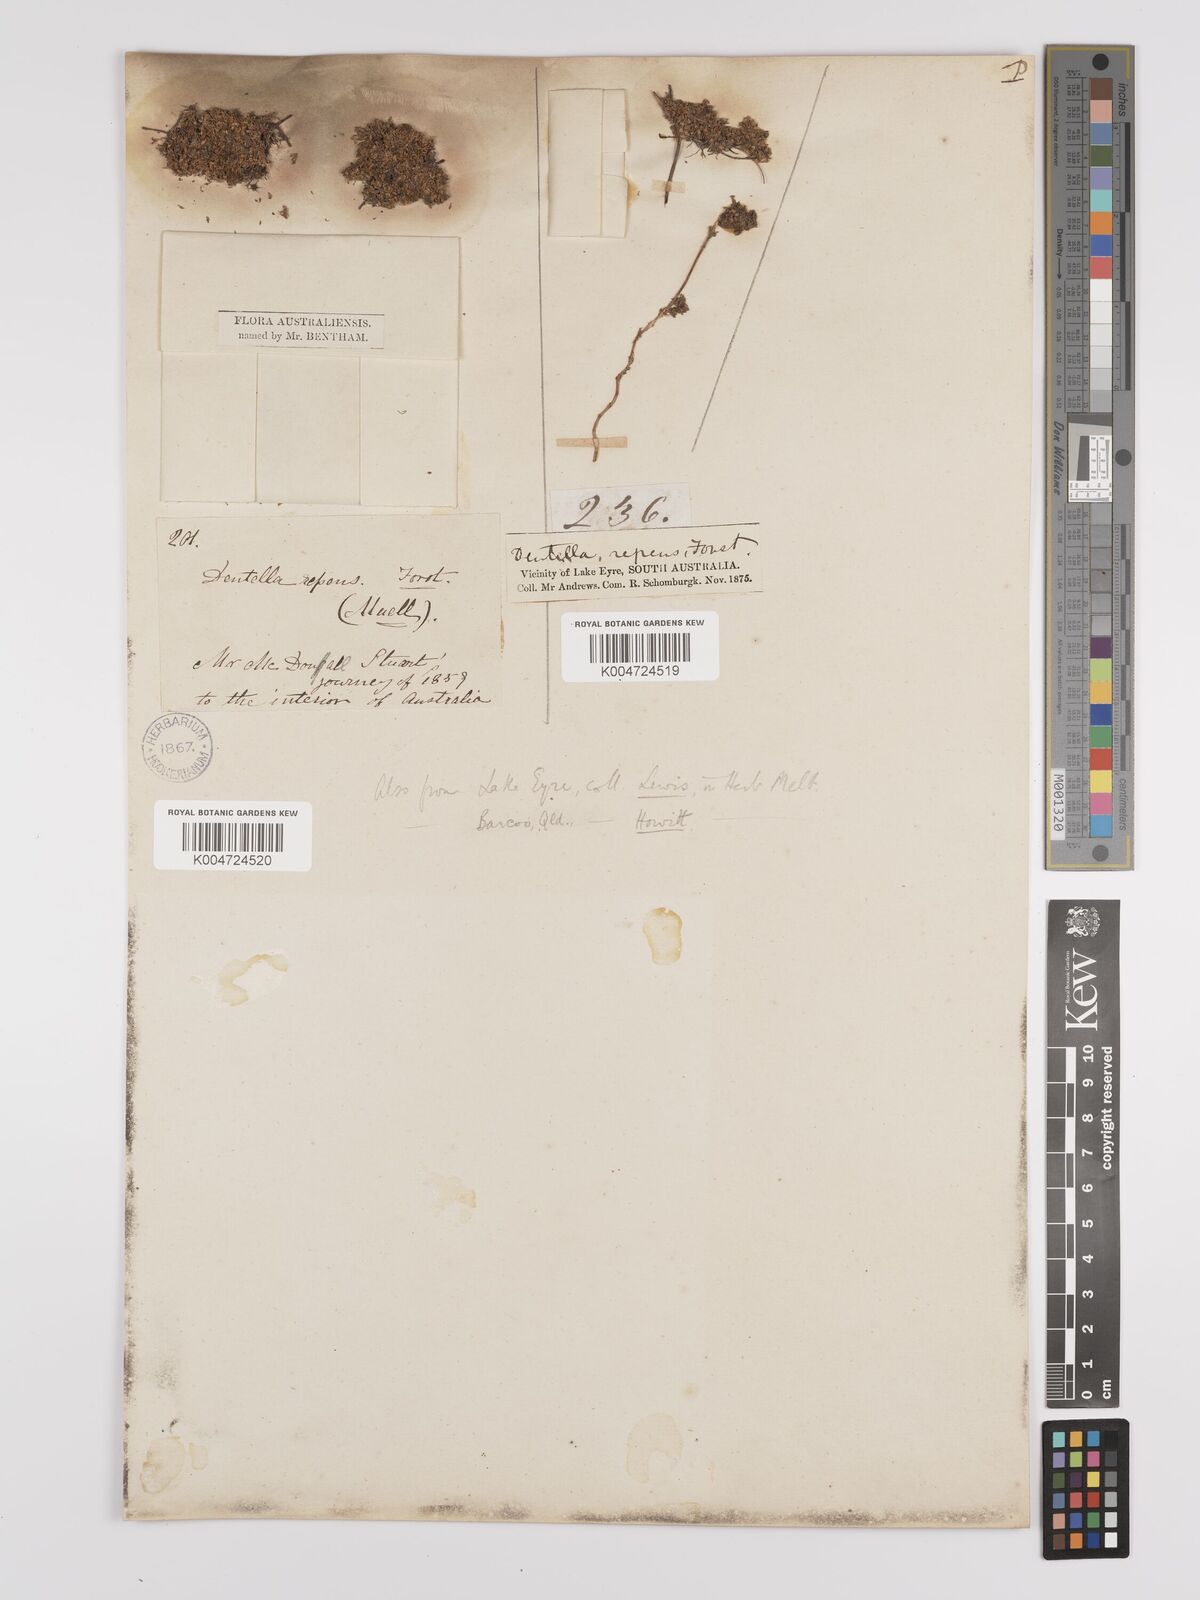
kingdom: Plantae
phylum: Tracheophyta
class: Magnoliopsida
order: Gentianales
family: Rubiaceae
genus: Dentella
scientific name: Dentella pulvinata
